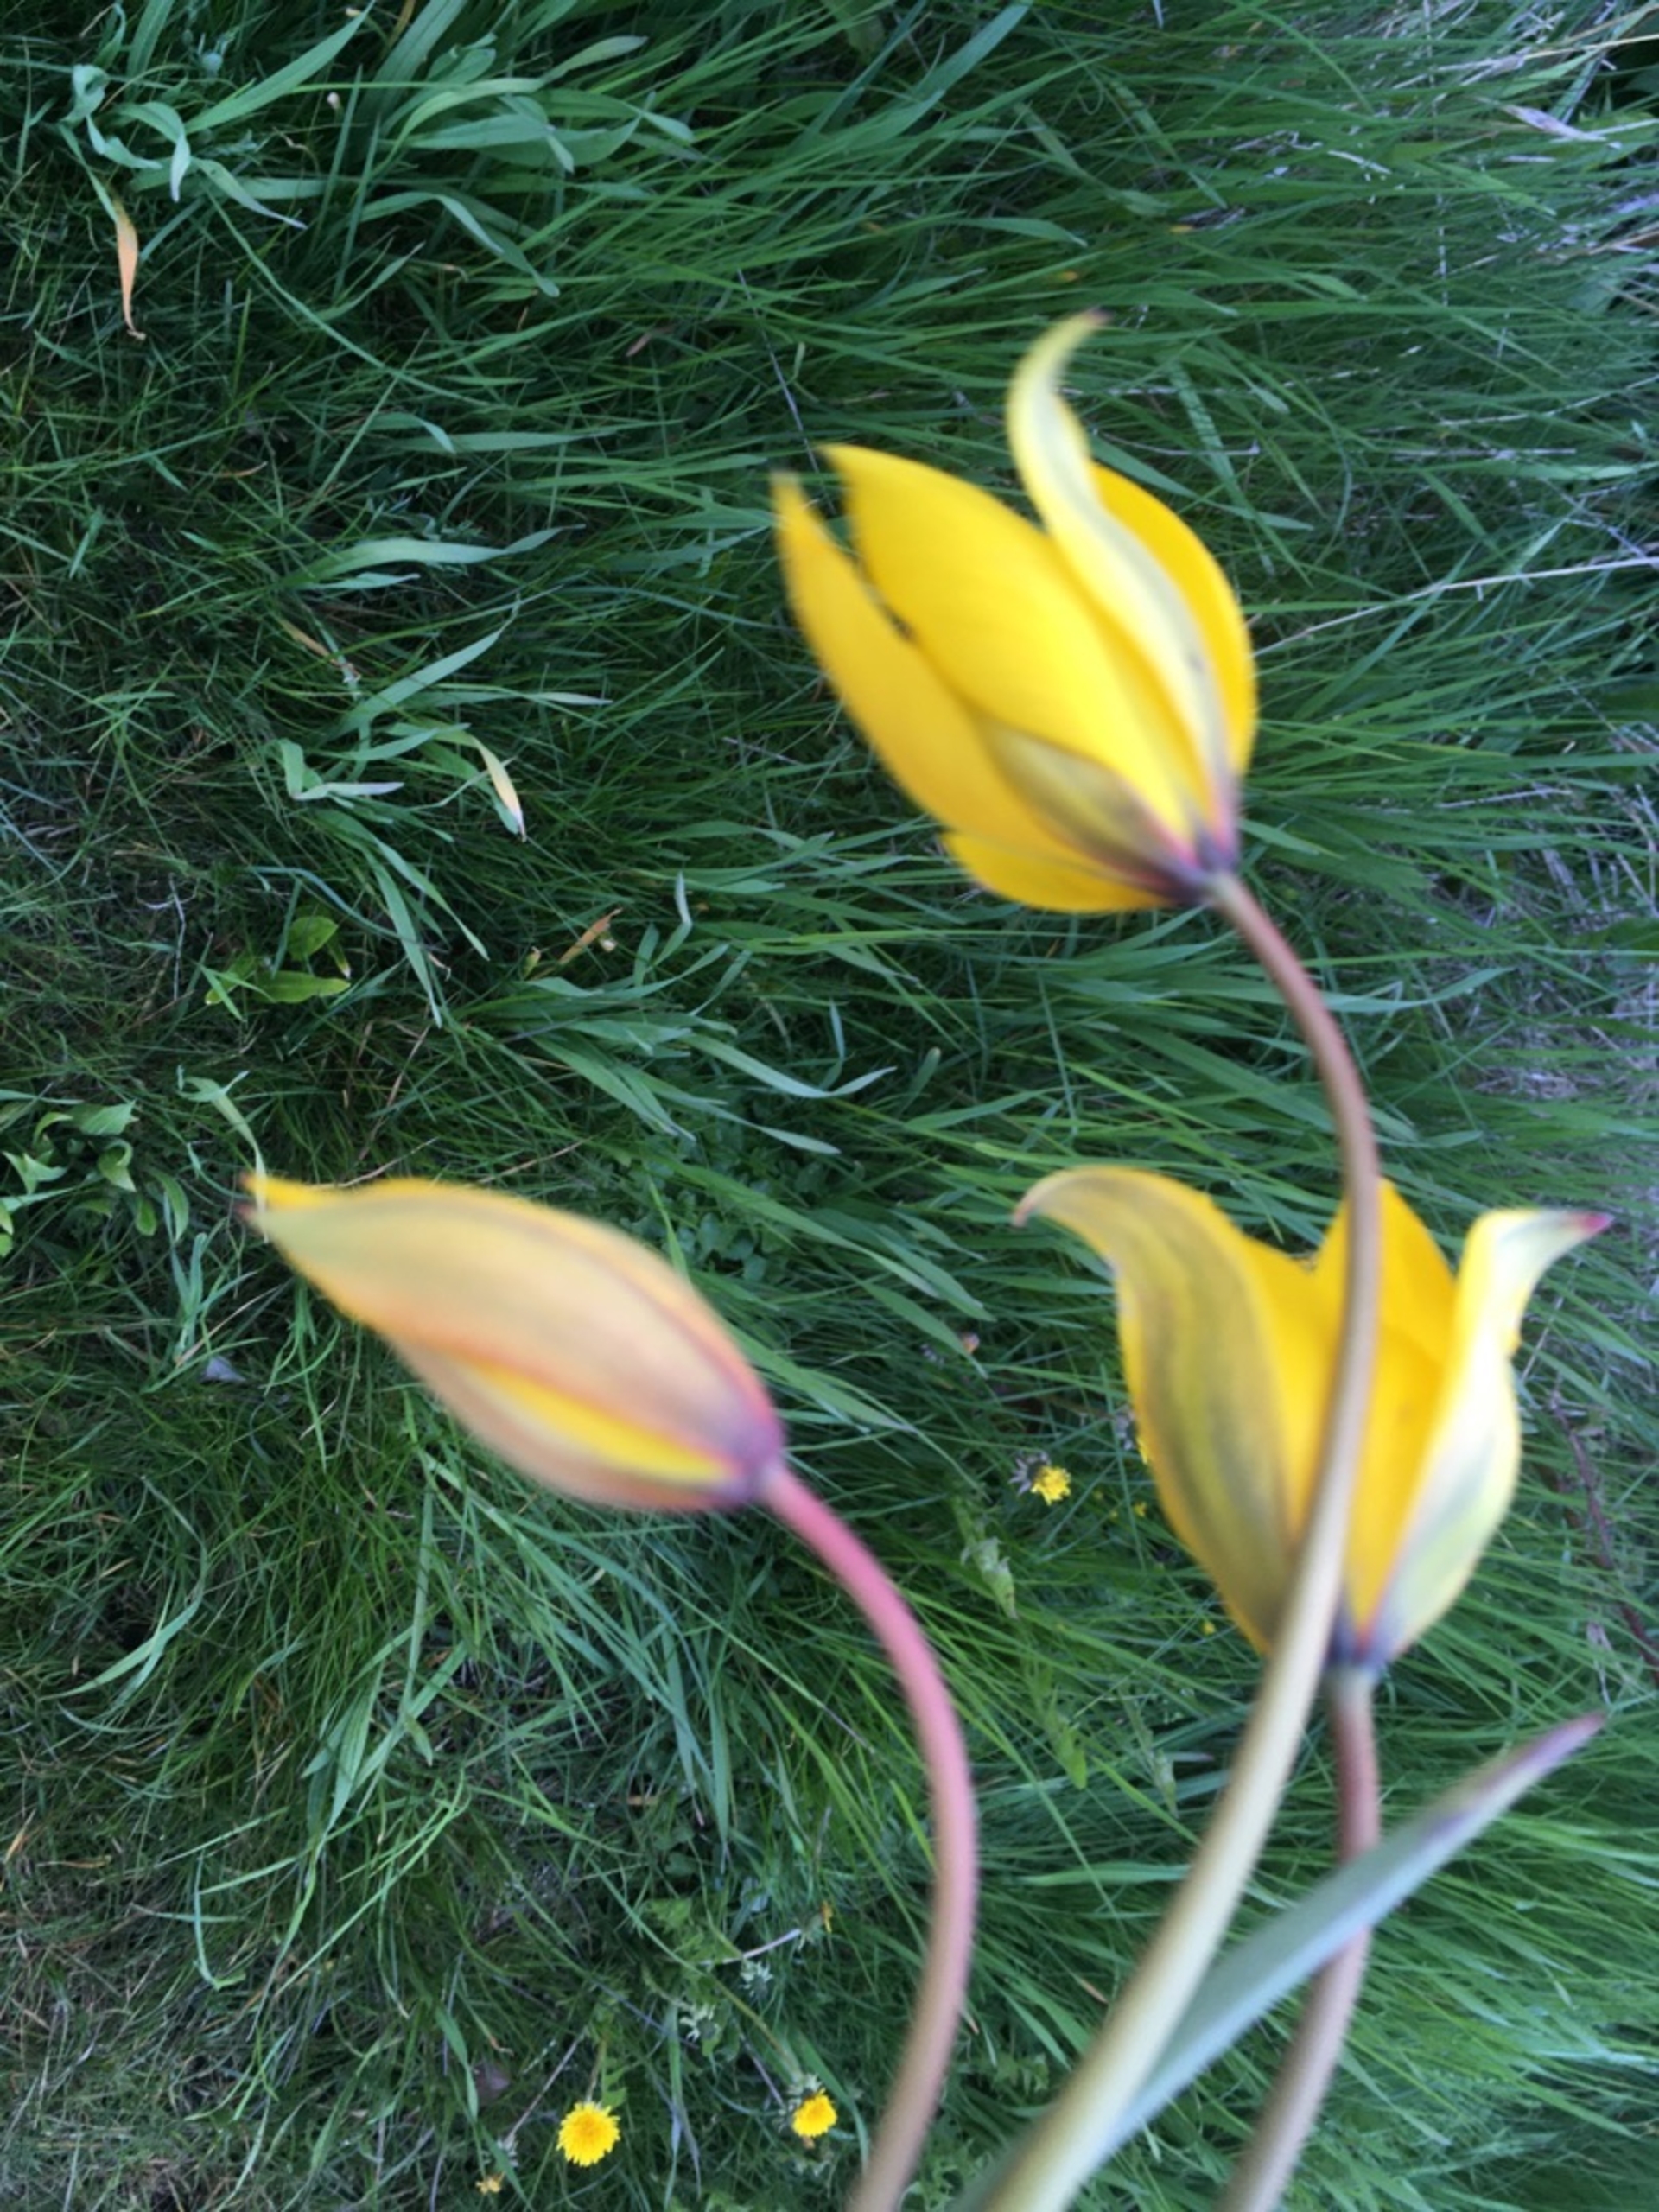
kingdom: Plantae
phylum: Tracheophyta
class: Liliopsida
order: Liliales
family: Liliaceae
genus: Tulipa
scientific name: Tulipa sylvestris
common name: Vild tulipan
